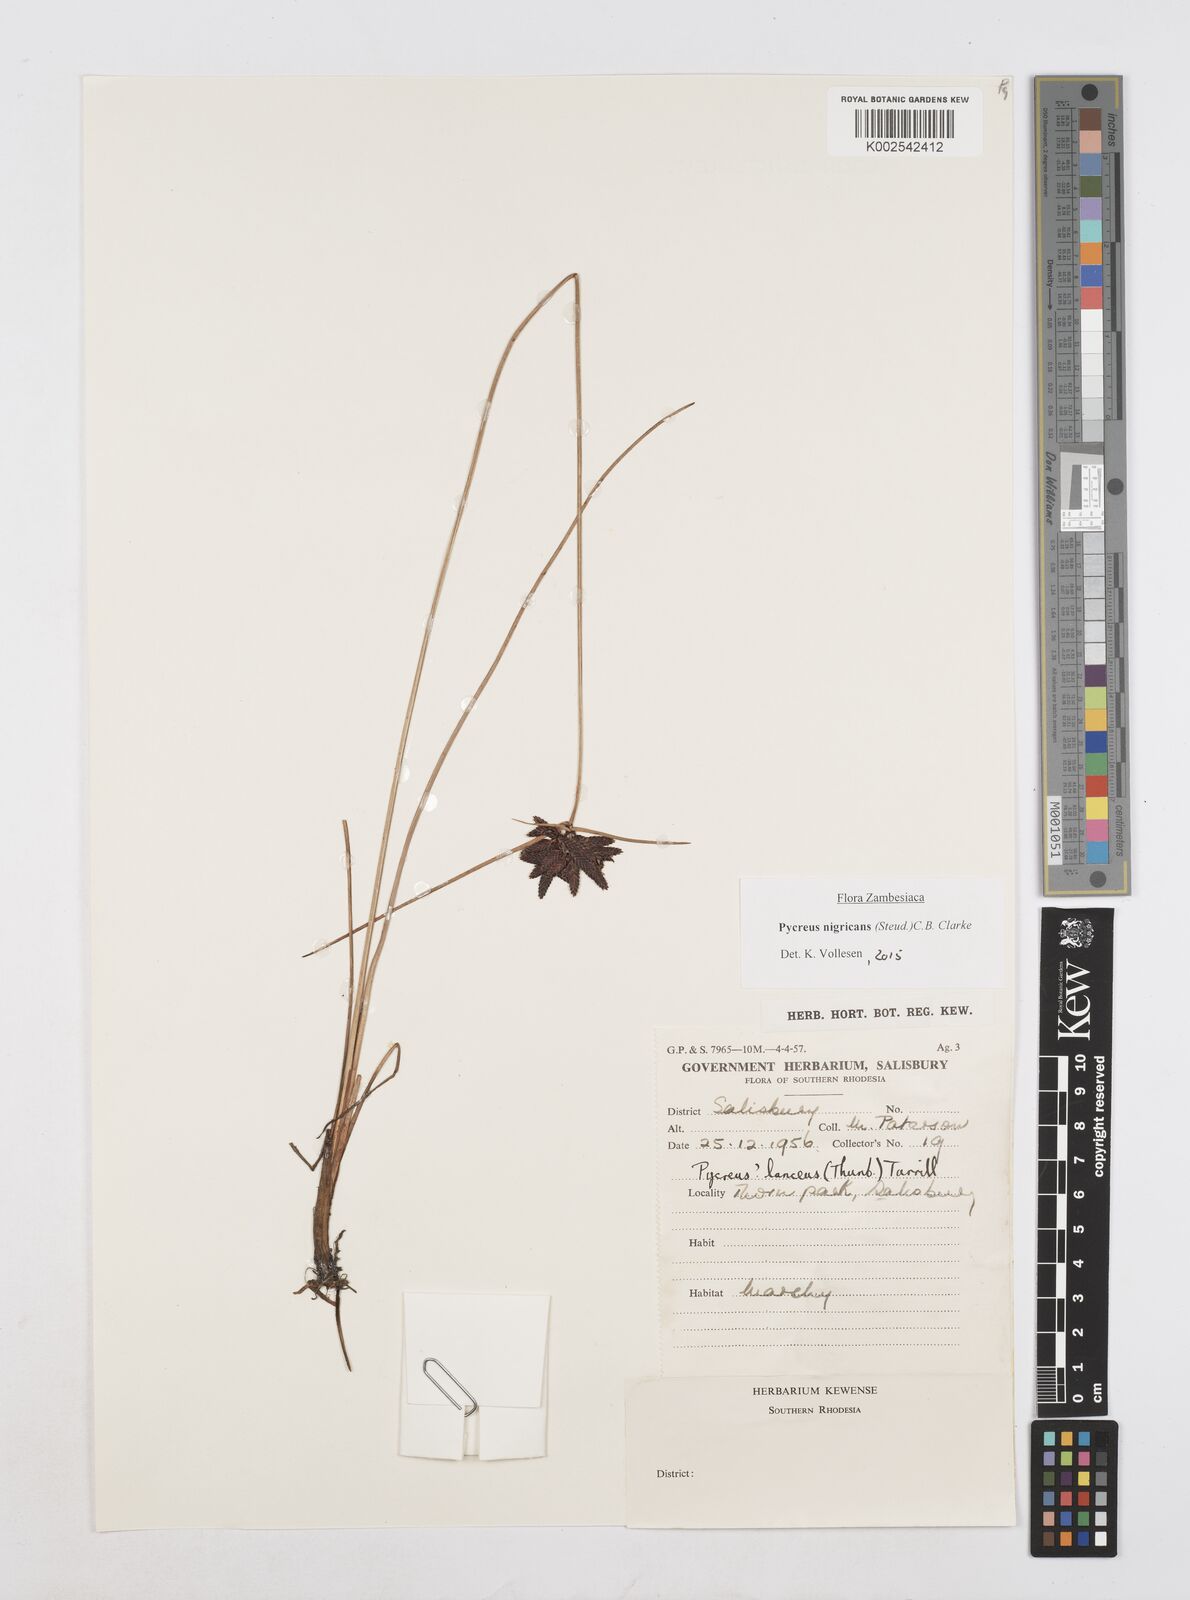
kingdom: Plantae
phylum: Tracheophyta
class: Liliopsida
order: Poales
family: Cyperaceae
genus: Cyperus
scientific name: Cyperus nigricans
